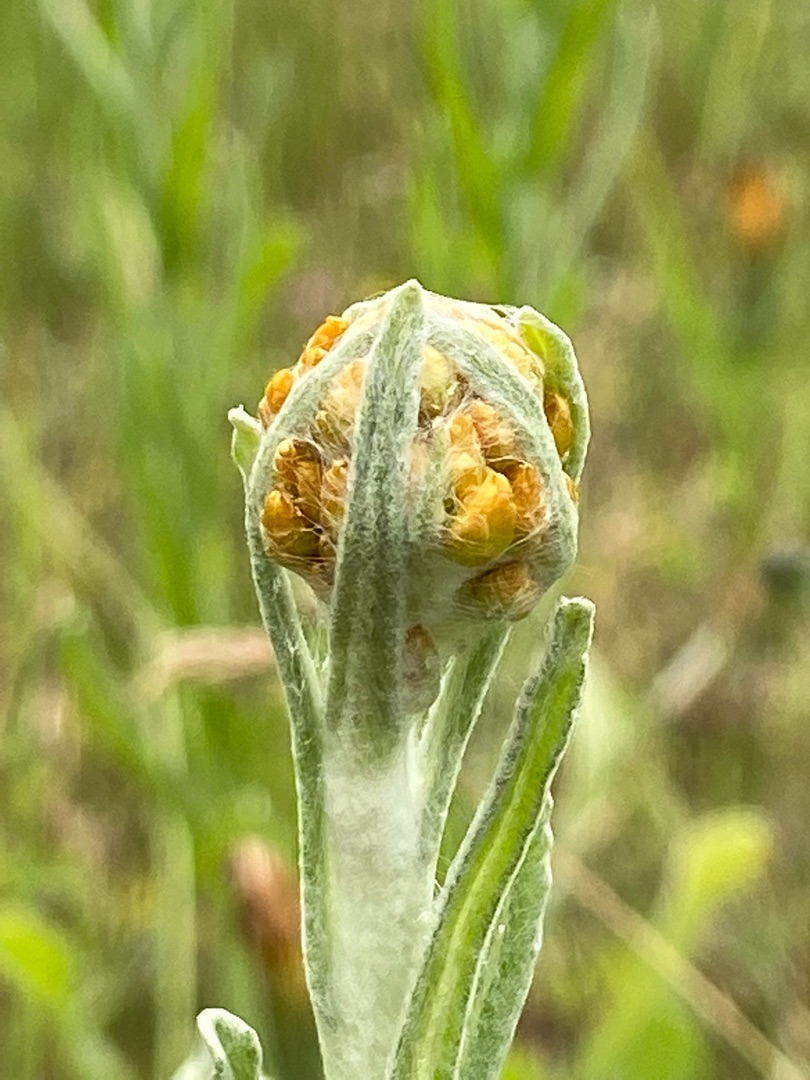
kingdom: Plantae
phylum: Tracheophyta
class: Magnoliopsida
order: Asterales
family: Asteraceae
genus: Helichrysum
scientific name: Helichrysum arenarium
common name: Gul evighedsblomst
